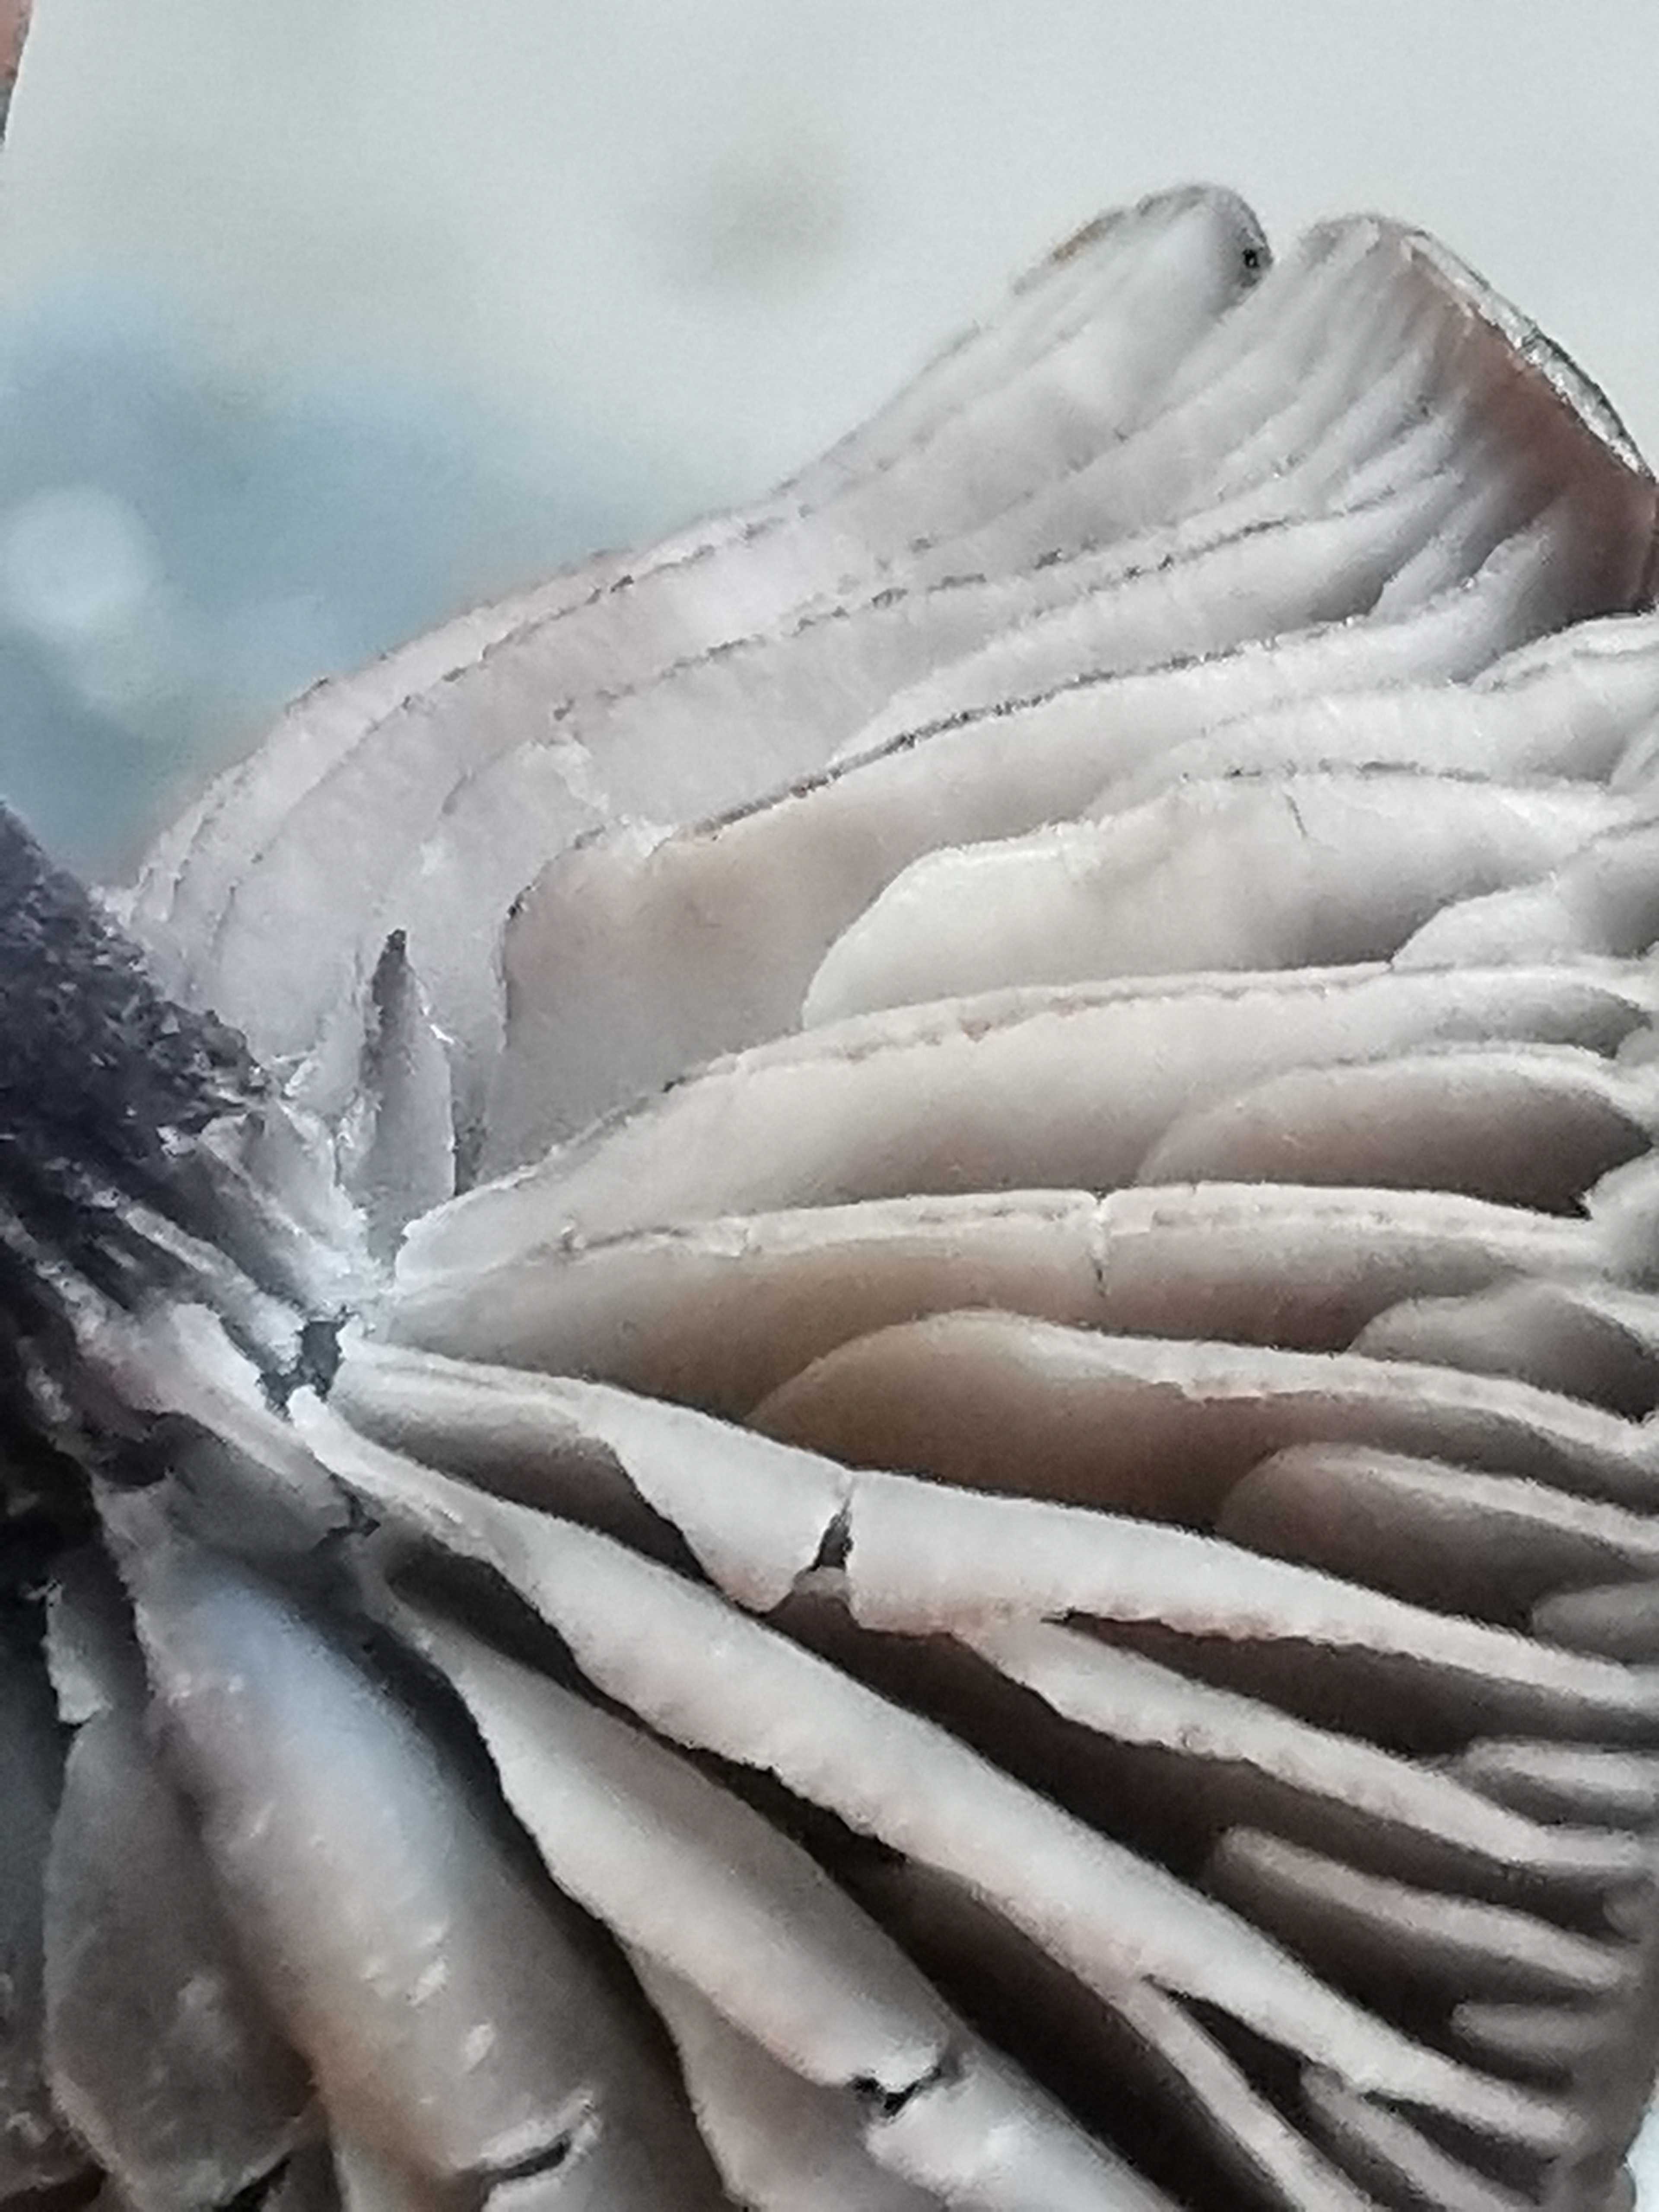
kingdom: Fungi
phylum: Basidiomycota
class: Agaricomycetes
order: Agaricales
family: Entolomataceae
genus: Entoloma
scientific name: Entoloma
